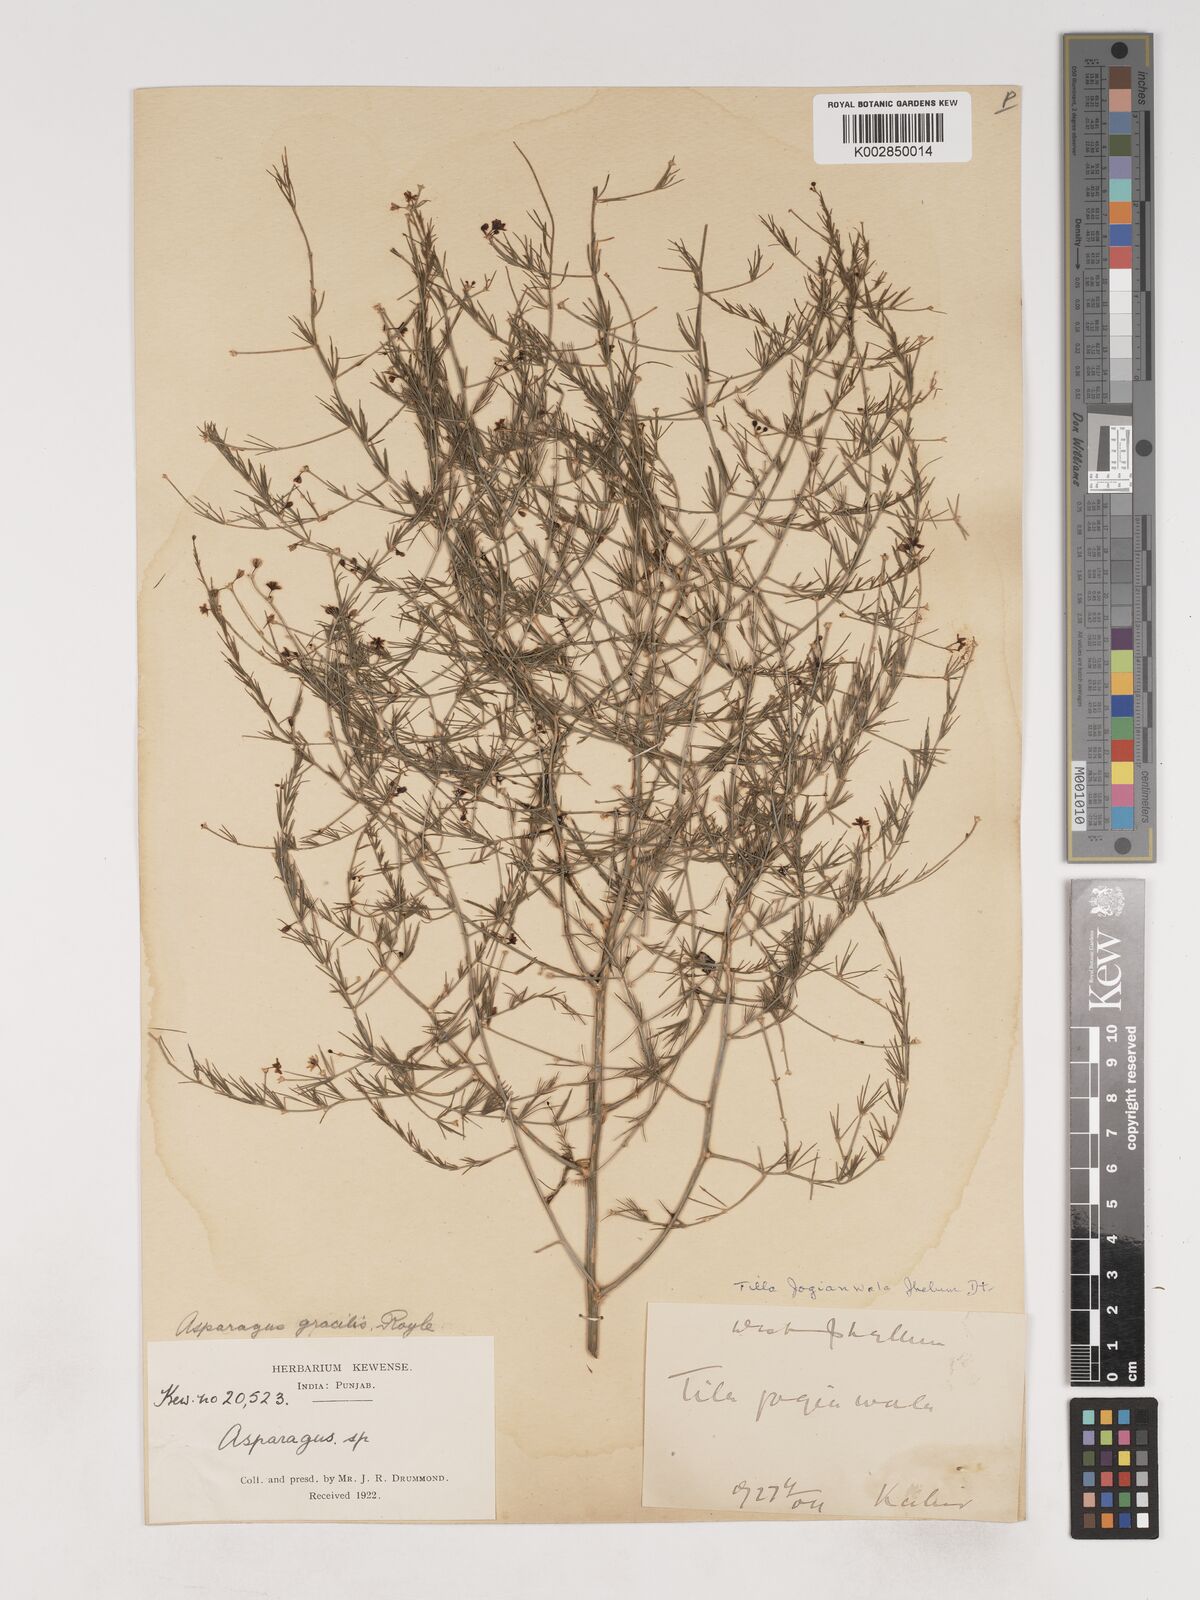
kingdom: Plantae
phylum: Tracheophyta
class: Liliopsida
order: Asparagales
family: Asparagaceae
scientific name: Asparagaceae
